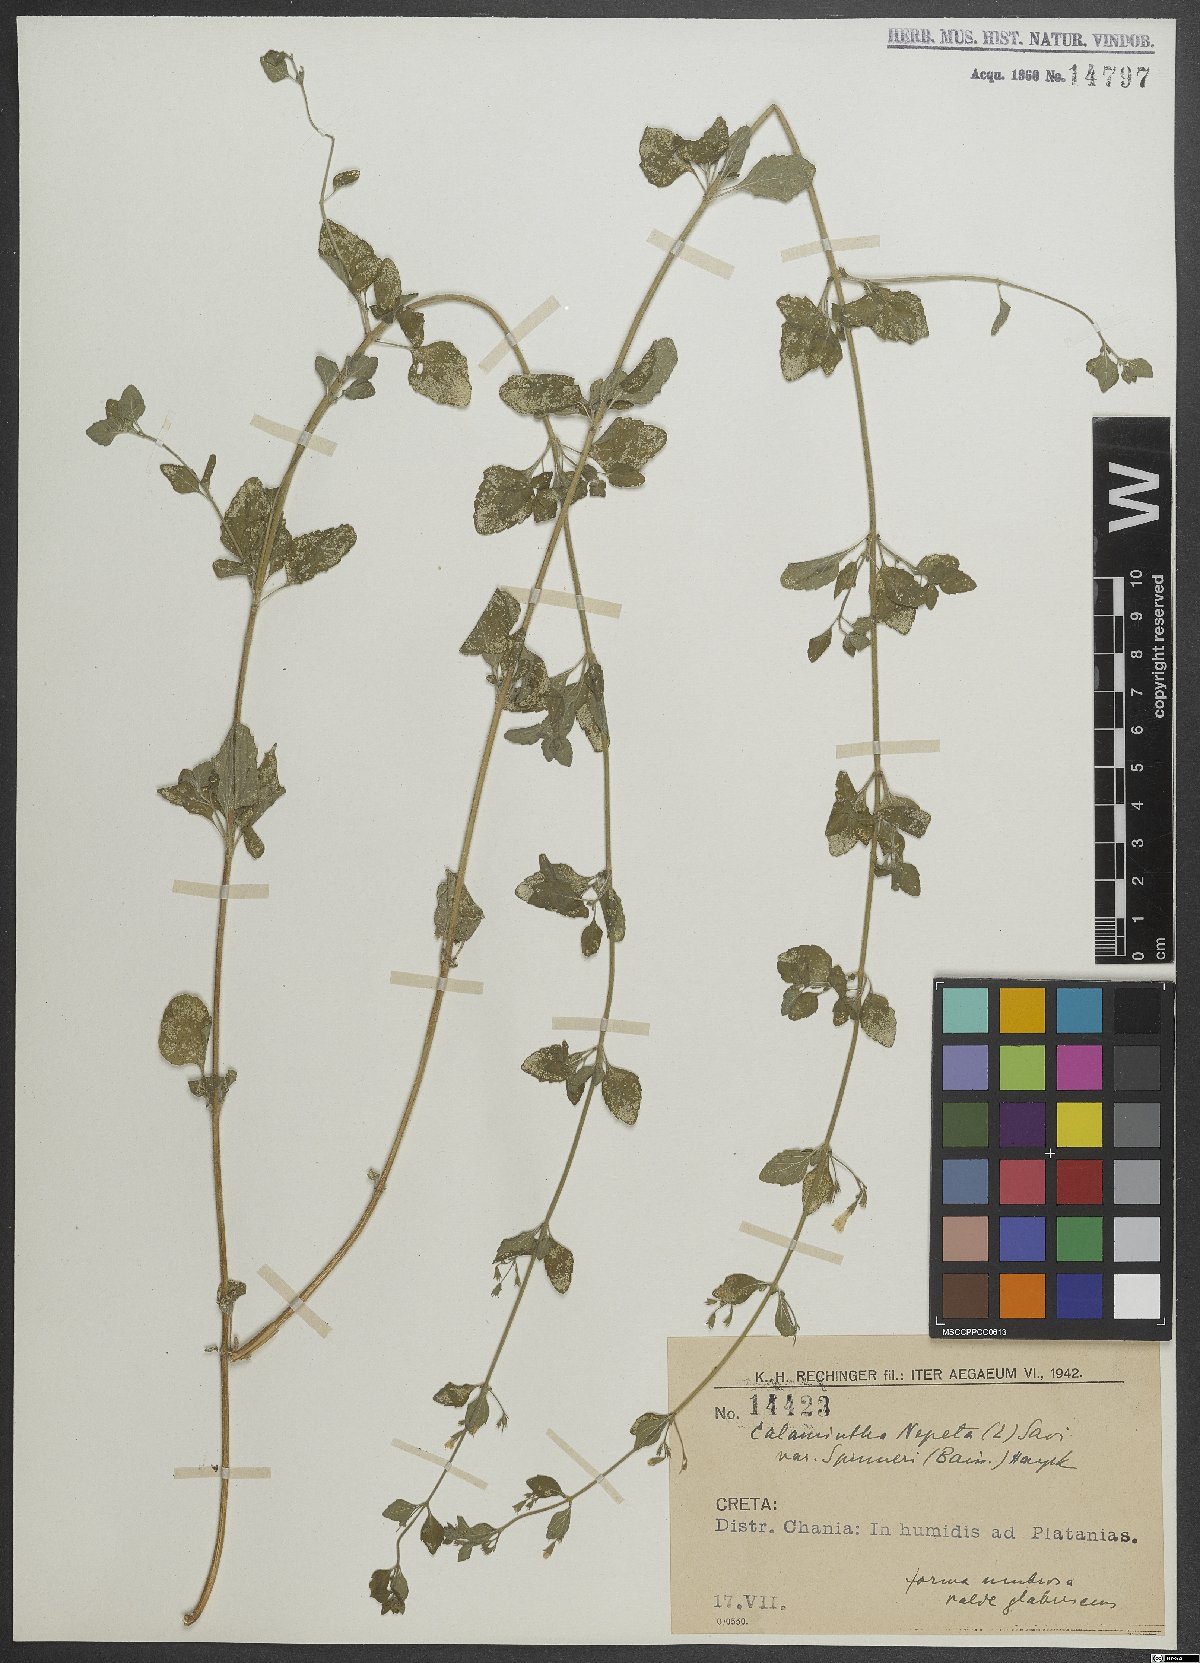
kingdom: Plantae
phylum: Tracheophyta
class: Magnoliopsida
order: Lamiales
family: Lamiaceae
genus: Clinopodium
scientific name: Clinopodium nepeta
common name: Lesser calamint
